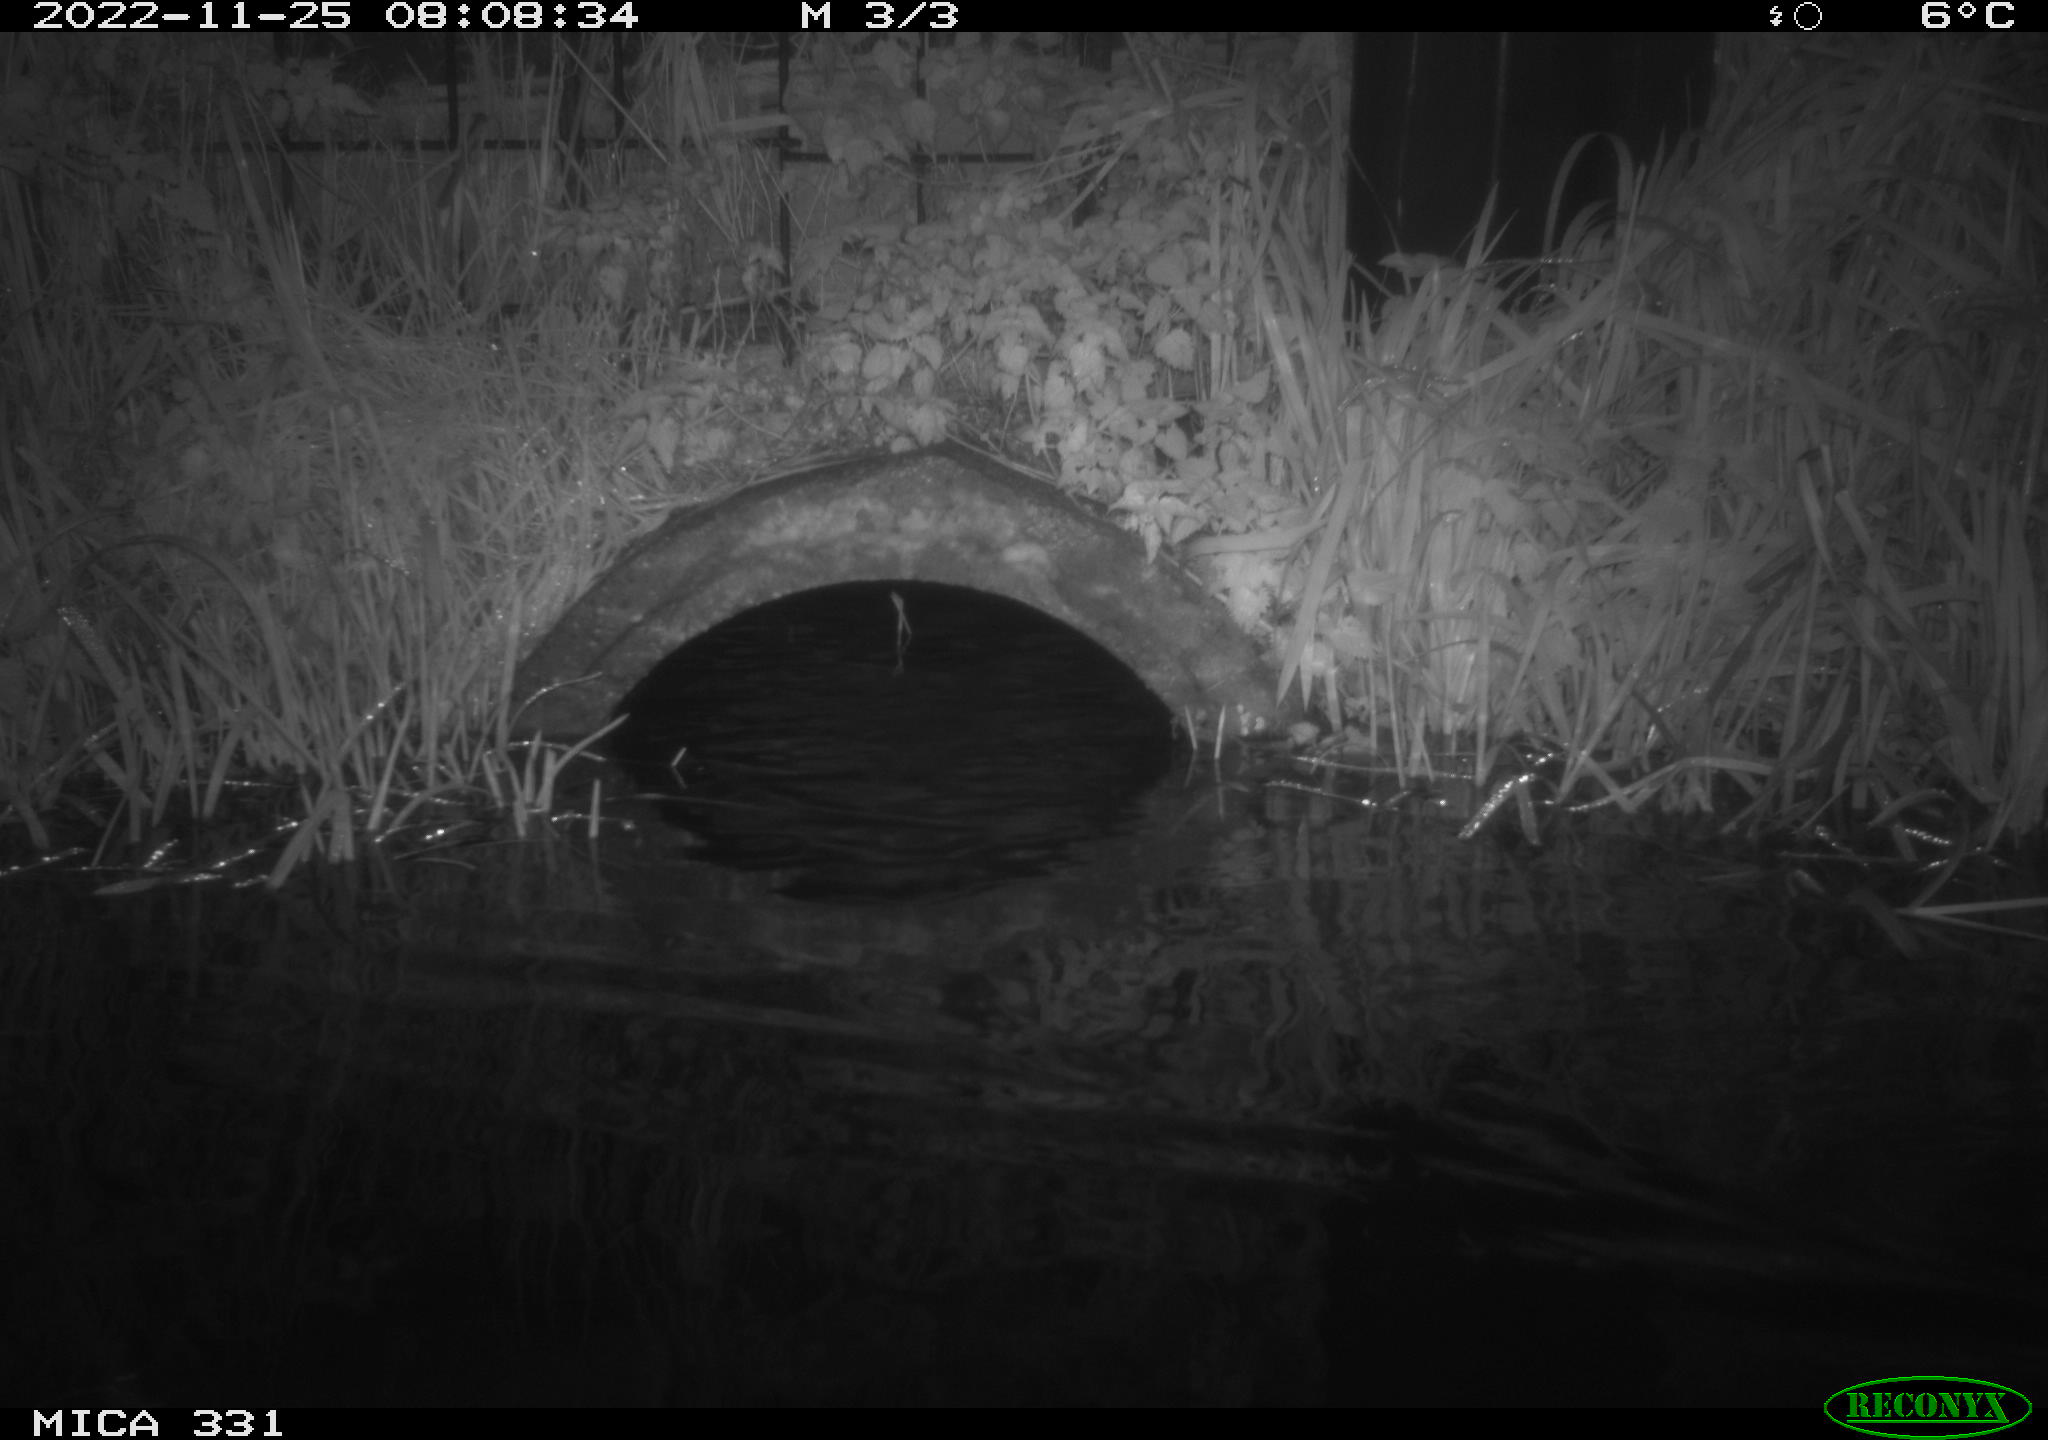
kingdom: Animalia
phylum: Chordata
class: Mammalia
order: Rodentia
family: Muridae
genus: Rattus
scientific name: Rattus norvegicus
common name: Brown rat
